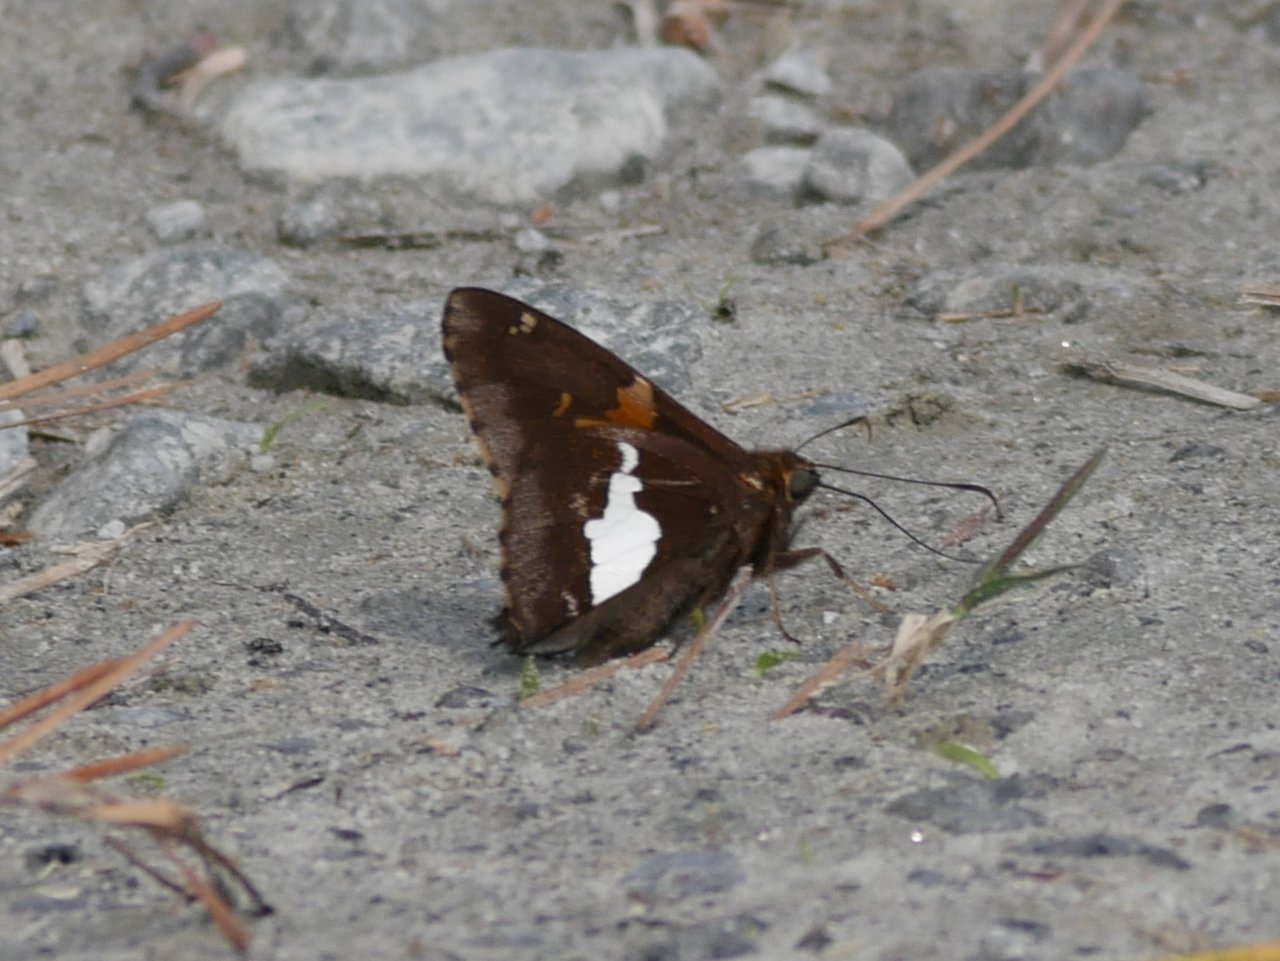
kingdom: Animalia
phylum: Arthropoda
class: Insecta
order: Lepidoptera
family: Hesperiidae
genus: Epargyreus
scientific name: Epargyreus clarus
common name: Silver-spotted Skipper
